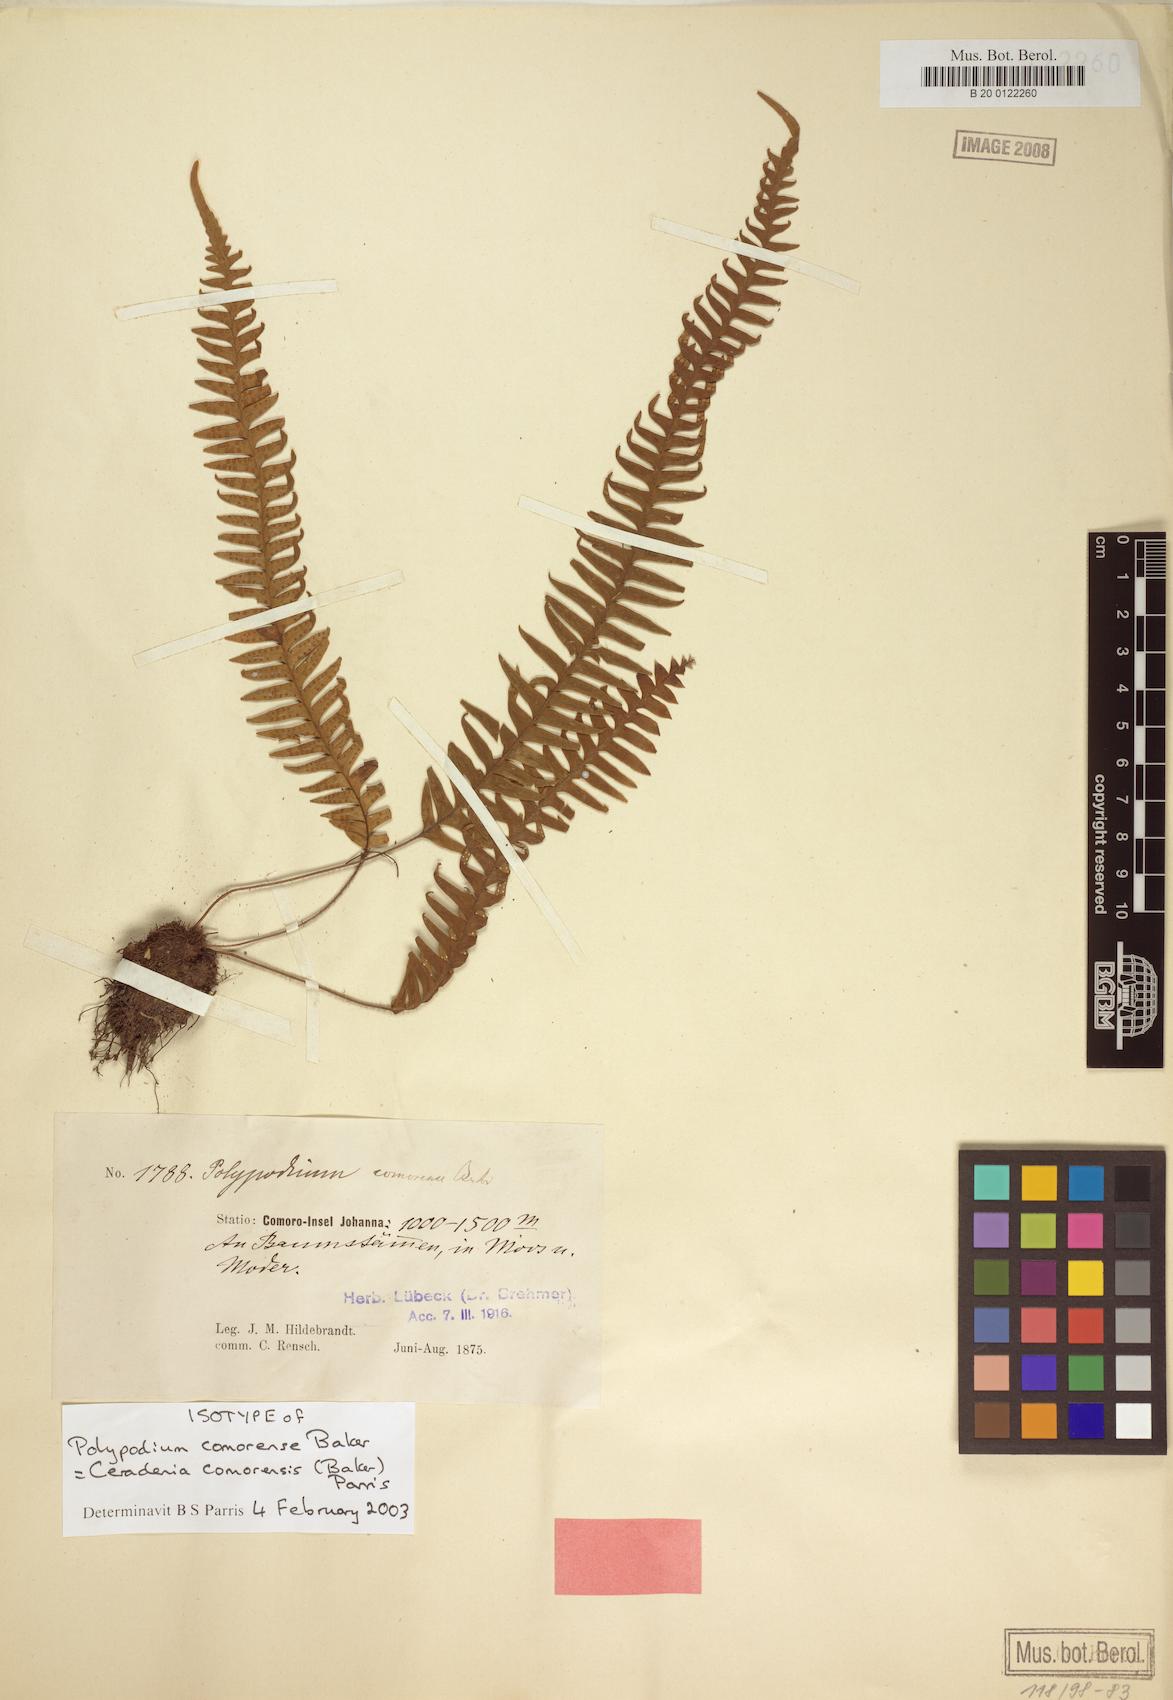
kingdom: Plantae
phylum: Tracheophyta
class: Polypodiopsida
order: Polypodiales
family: Polypodiaceae
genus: Ceradenia
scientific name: Ceradenia comorensis
